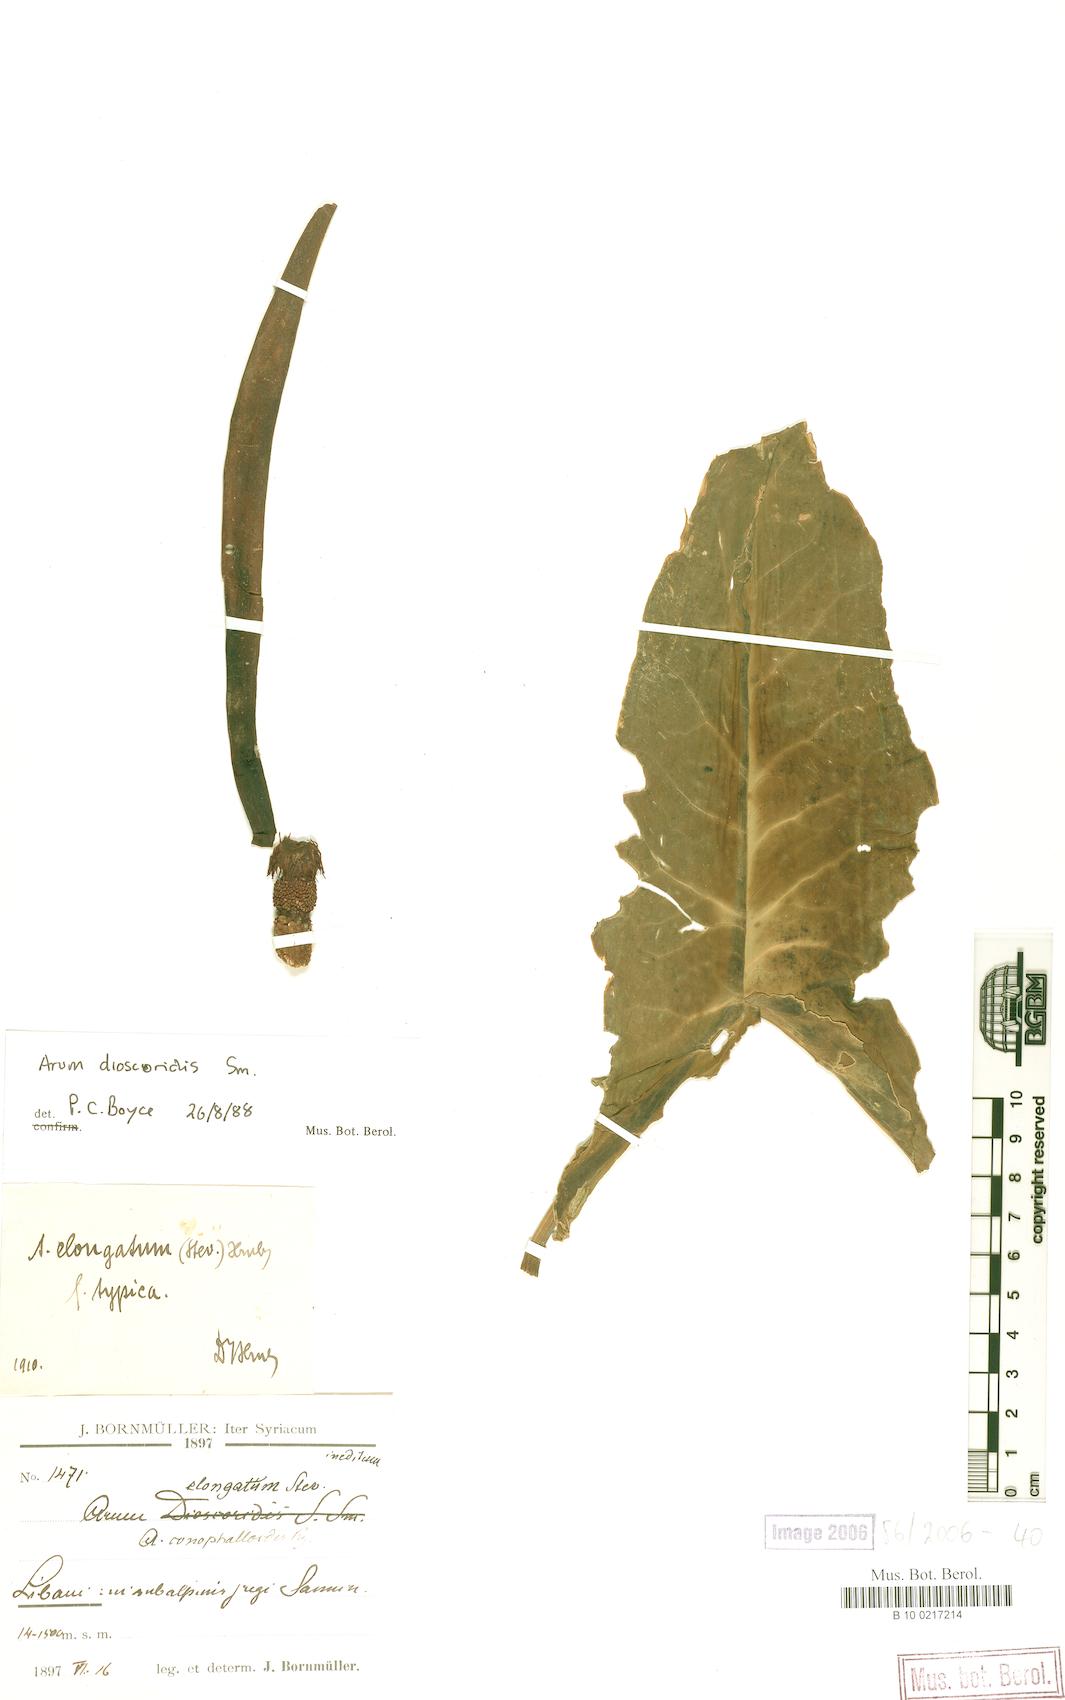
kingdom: Plantae
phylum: Tracheophyta
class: Liliopsida
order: Alismatales
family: Araceae
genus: Arum
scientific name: Arum dioscoridis
